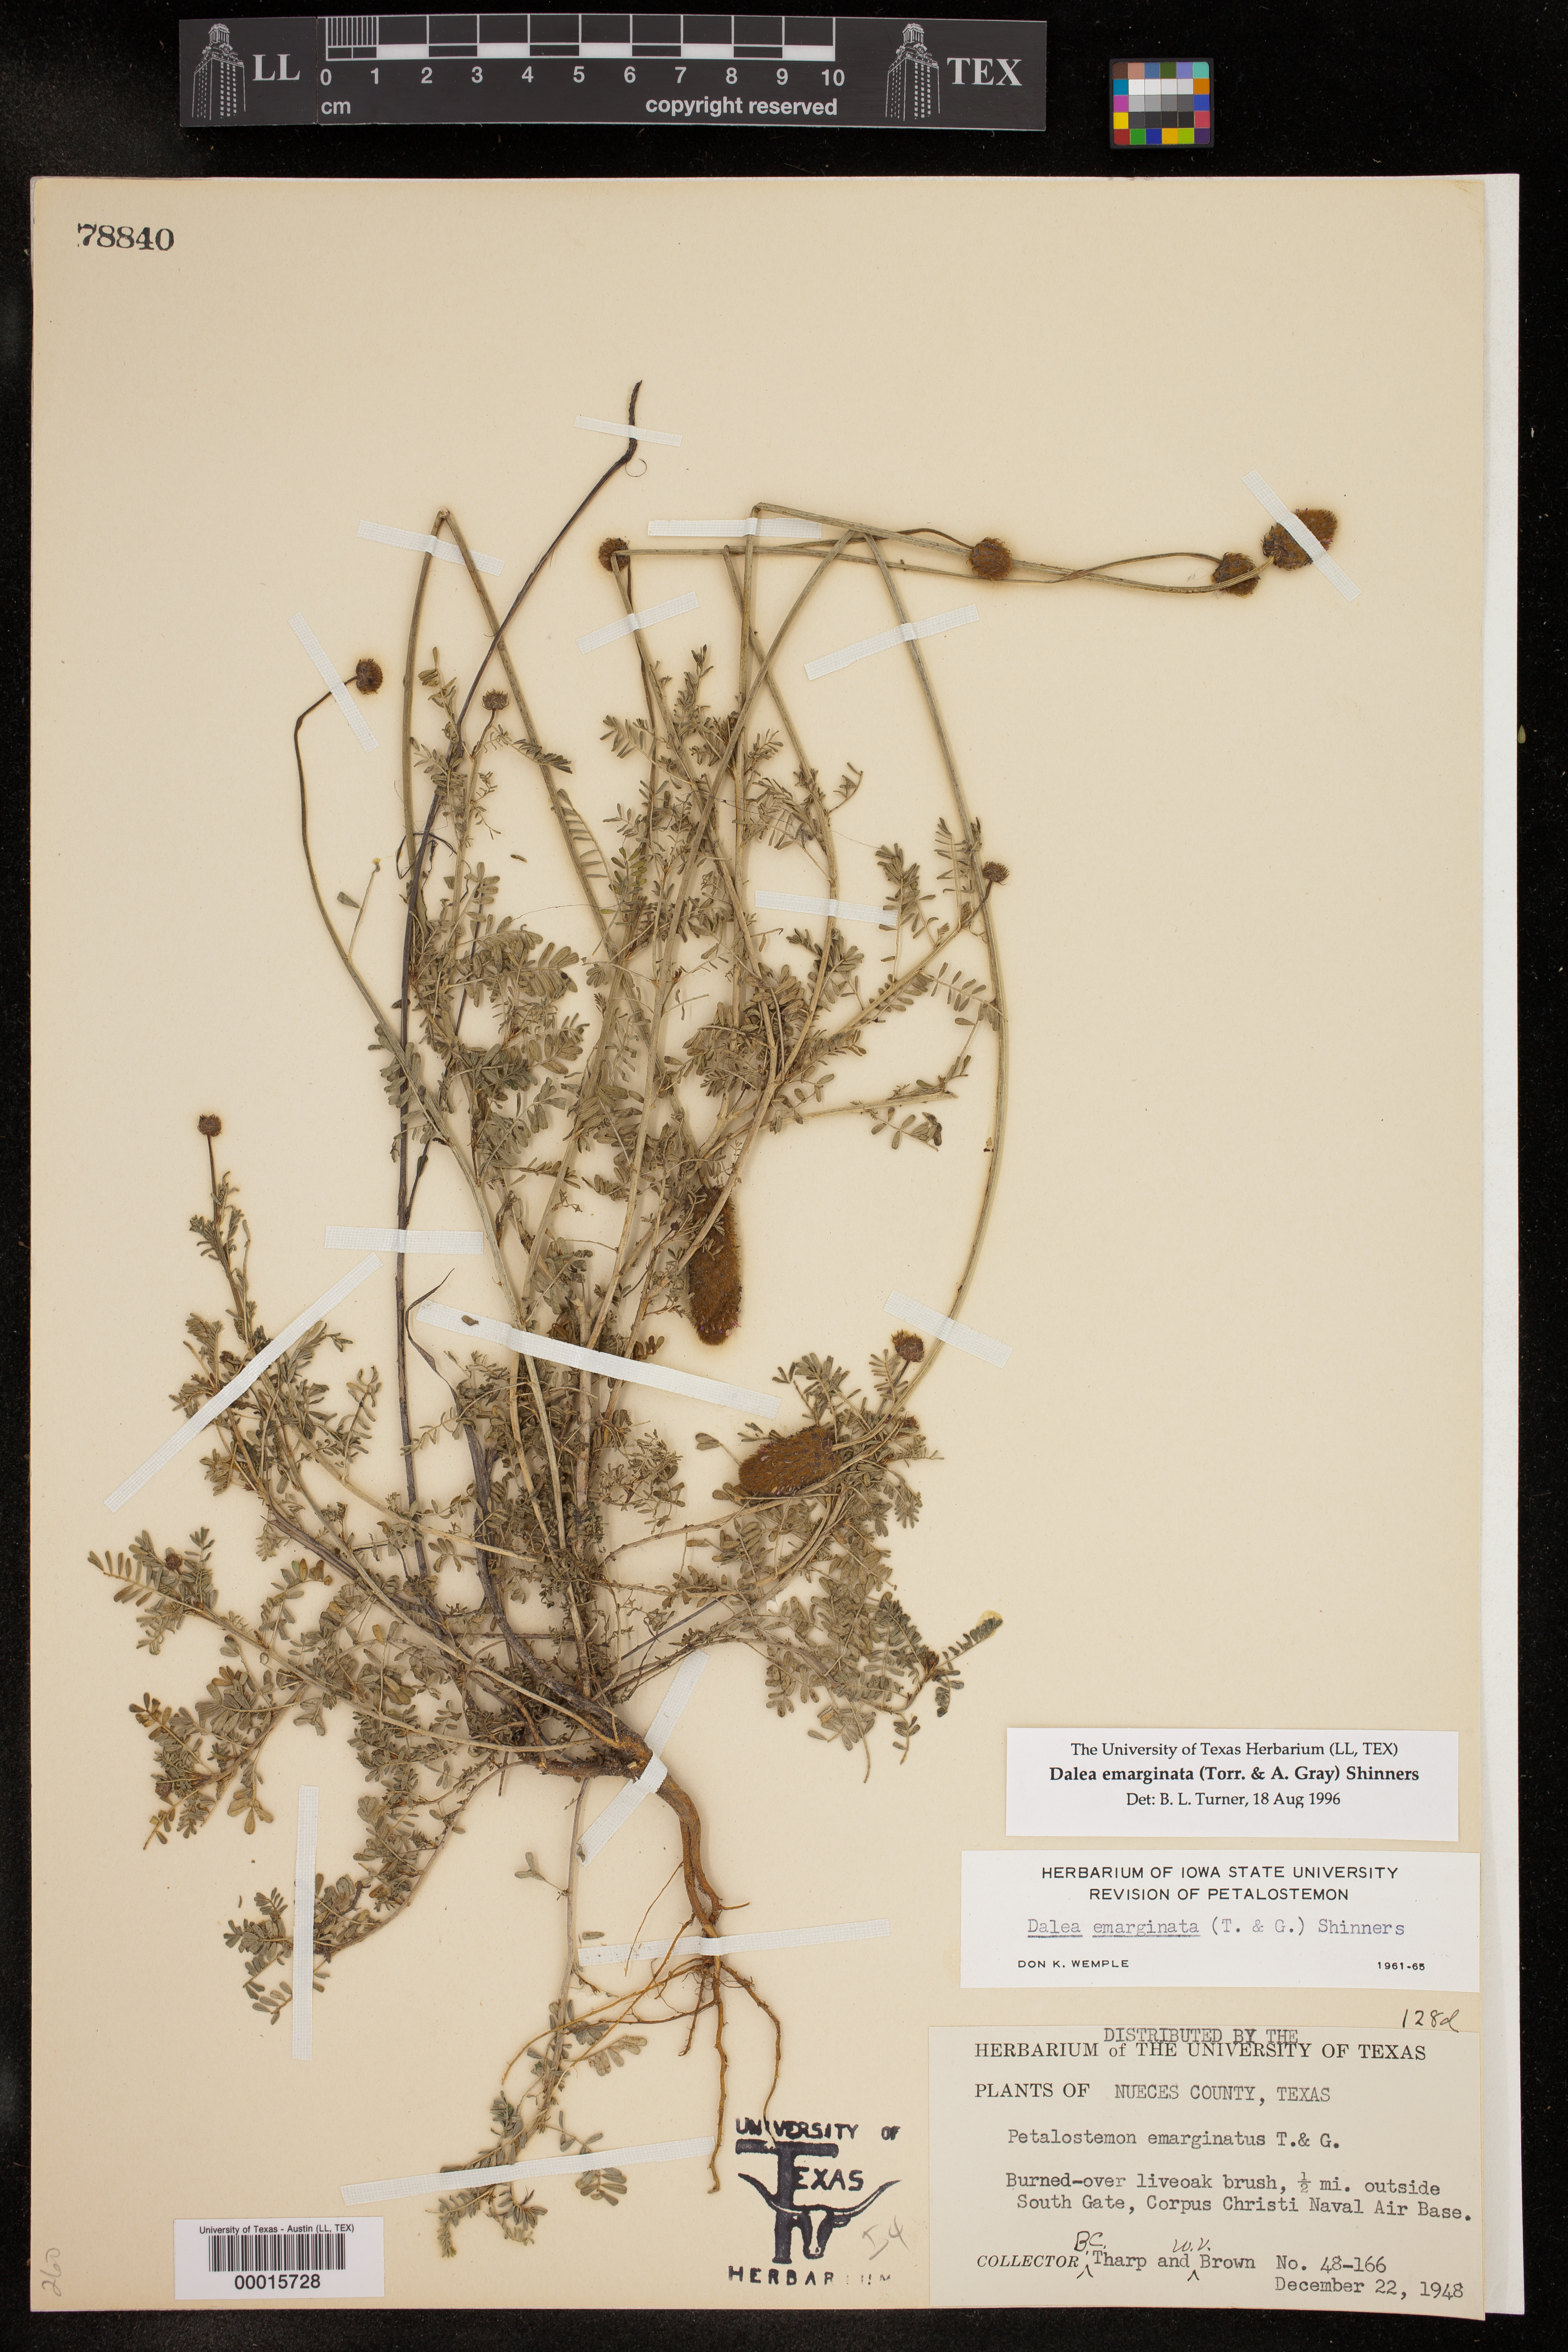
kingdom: Plantae
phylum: Tracheophyta
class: Magnoliopsida
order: Fabales
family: Fabaceae
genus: Dalea
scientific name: Dalea emarginata
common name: Wedgeleaf prairie clover
